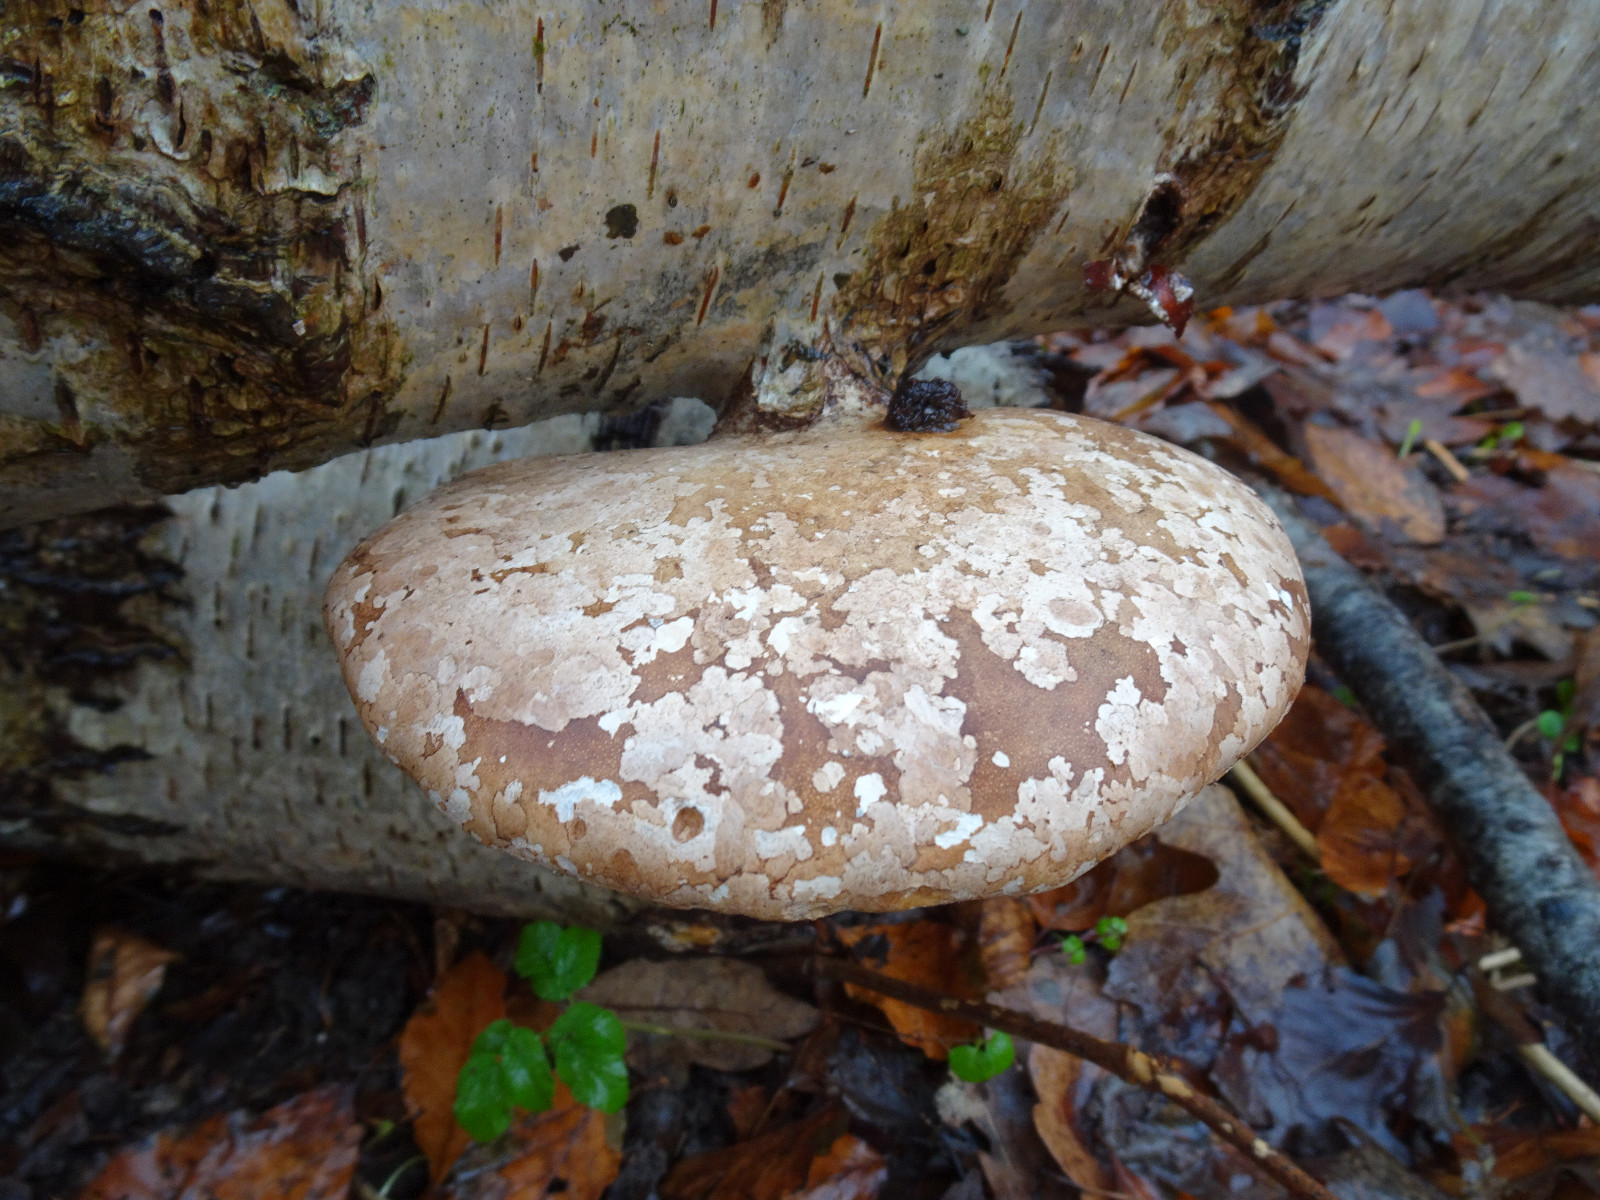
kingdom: Fungi
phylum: Basidiomycota
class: Agaricomycetes
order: Polyporales
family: Fomitopsidaceae
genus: Fomitopsis
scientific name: Fomitopsis betulina
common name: birkeporesvamp
